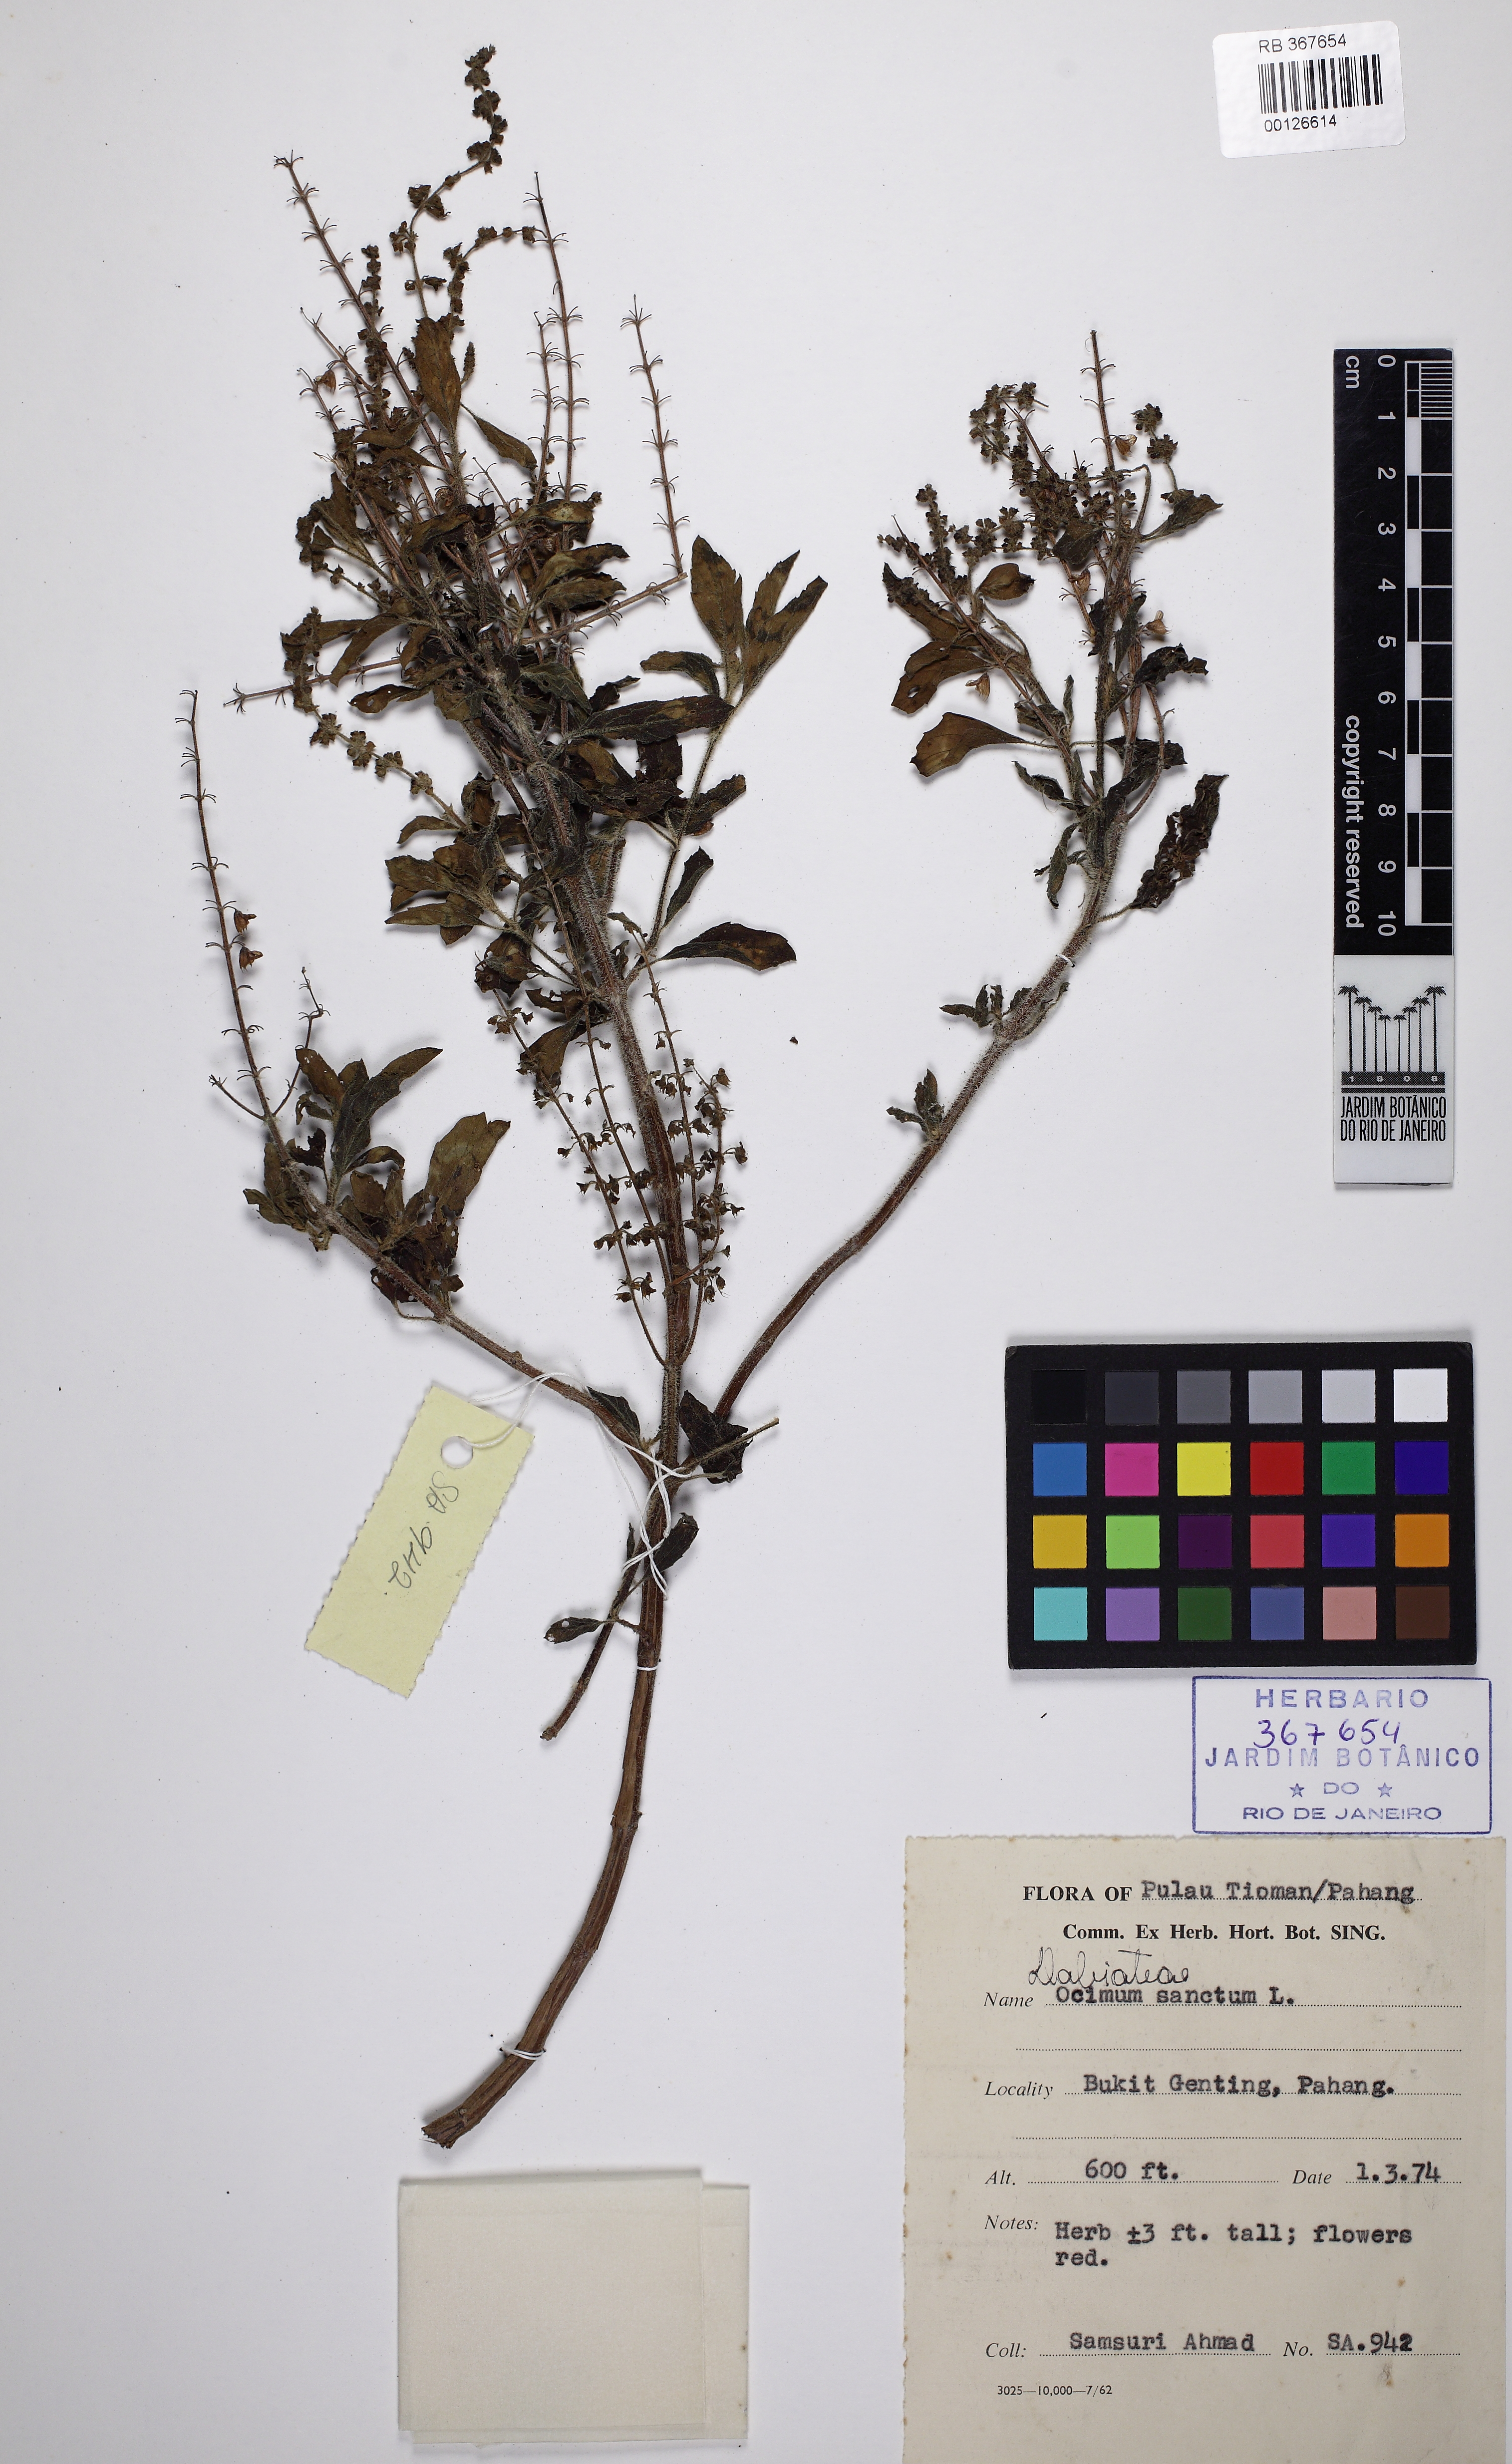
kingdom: Plantae
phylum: Tracheophyta
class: Magnoliopsida
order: Lamiales
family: Lamiaceae
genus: Ocimum
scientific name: Ocimum tenuiflorum
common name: Sacred basil
